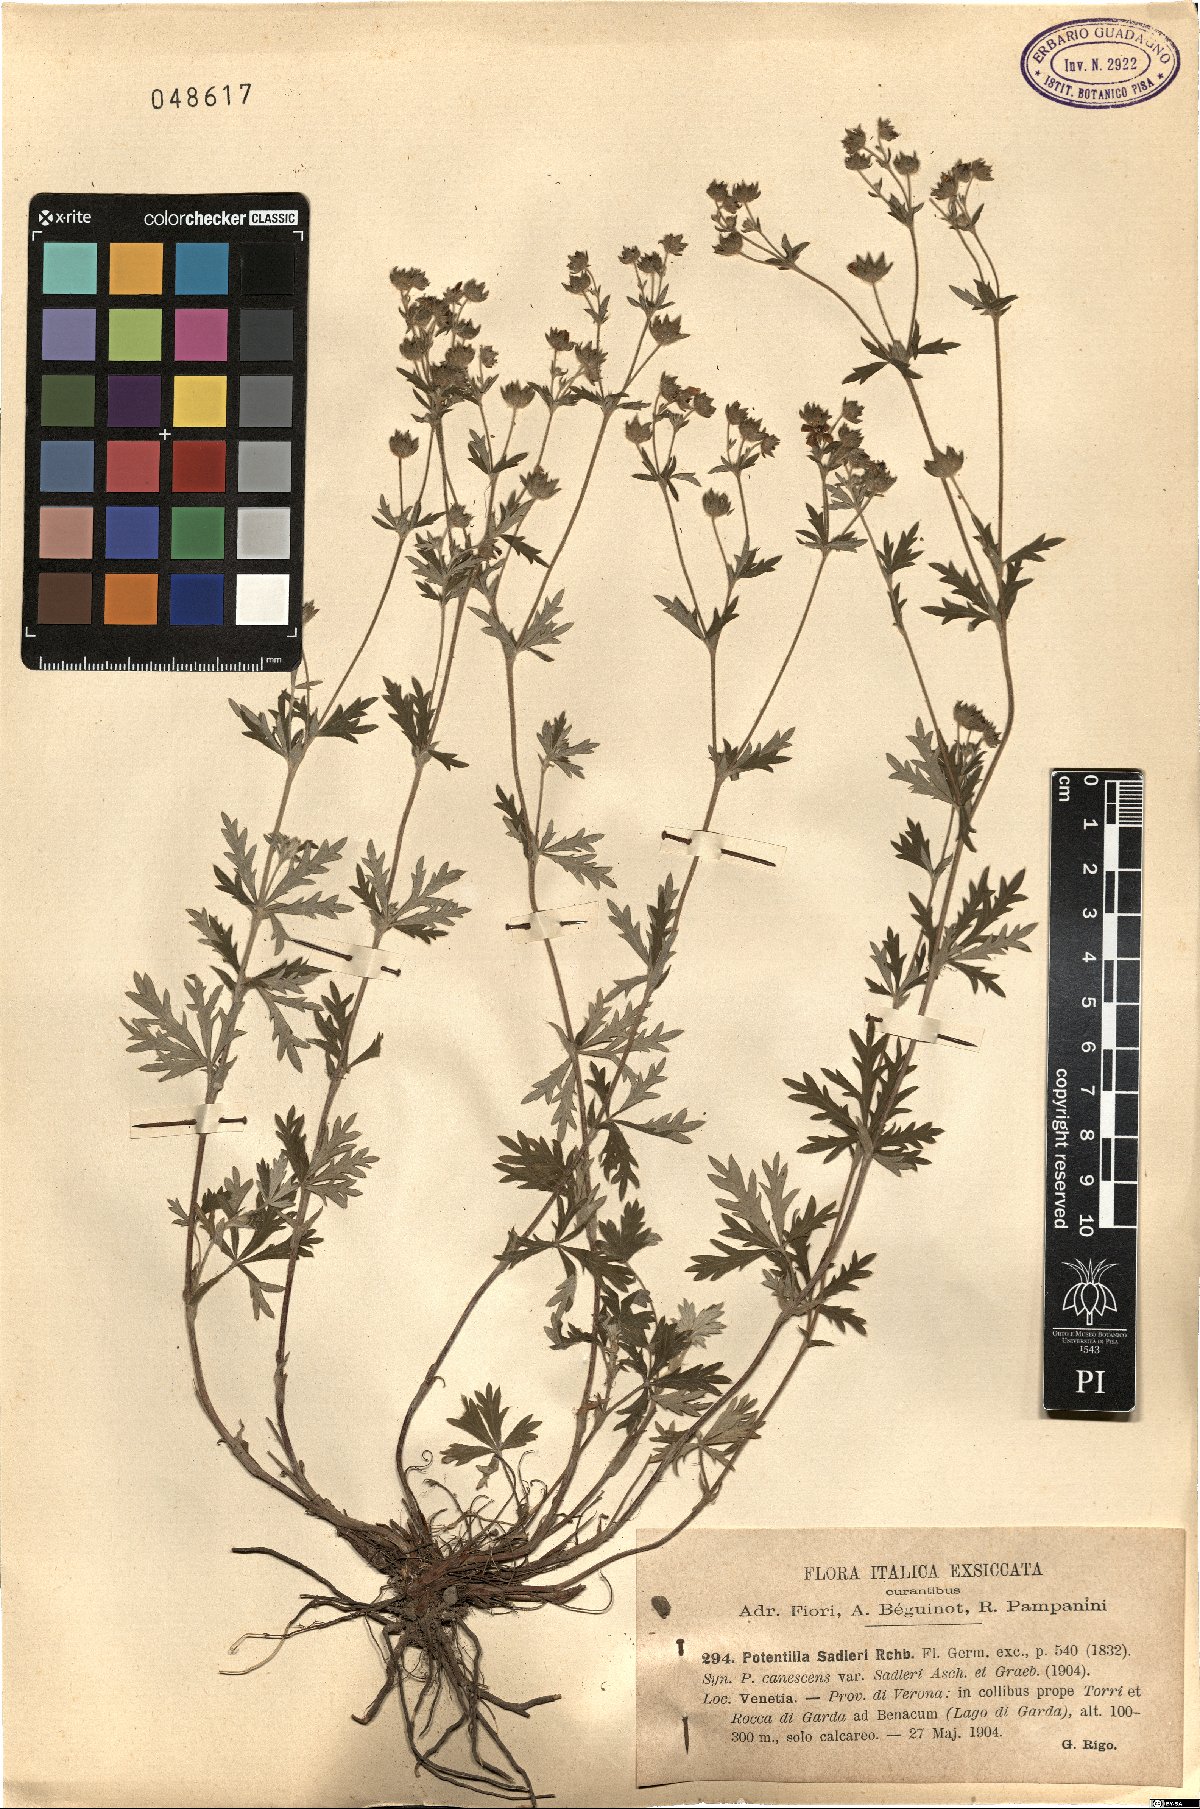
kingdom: Plantae
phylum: Tracheophyta
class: Magnoliopsida
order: Rosales
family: Rosaceae
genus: Potentilla
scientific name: Potentilla inclinata
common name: Grey cinquefoil
